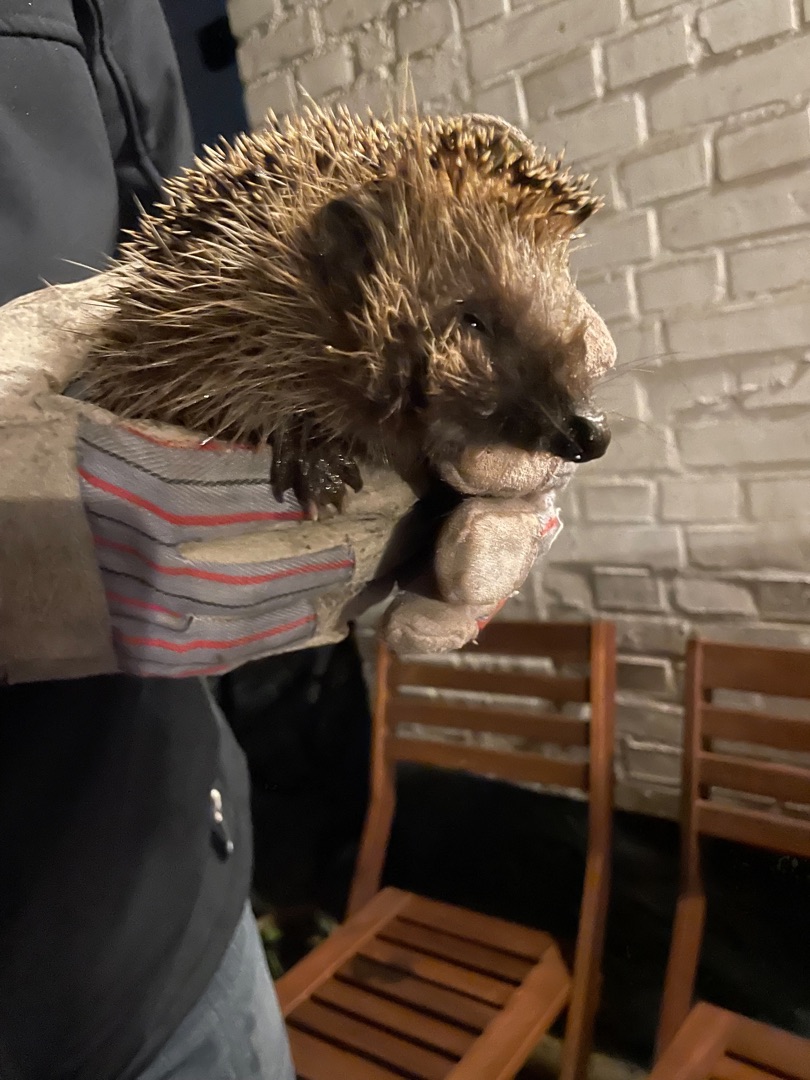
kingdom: Animalia
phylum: Chordata
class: Mammalia
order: Erinaceomorpha
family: Erinaceidae
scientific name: Erinaceidae
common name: Pindsvin
